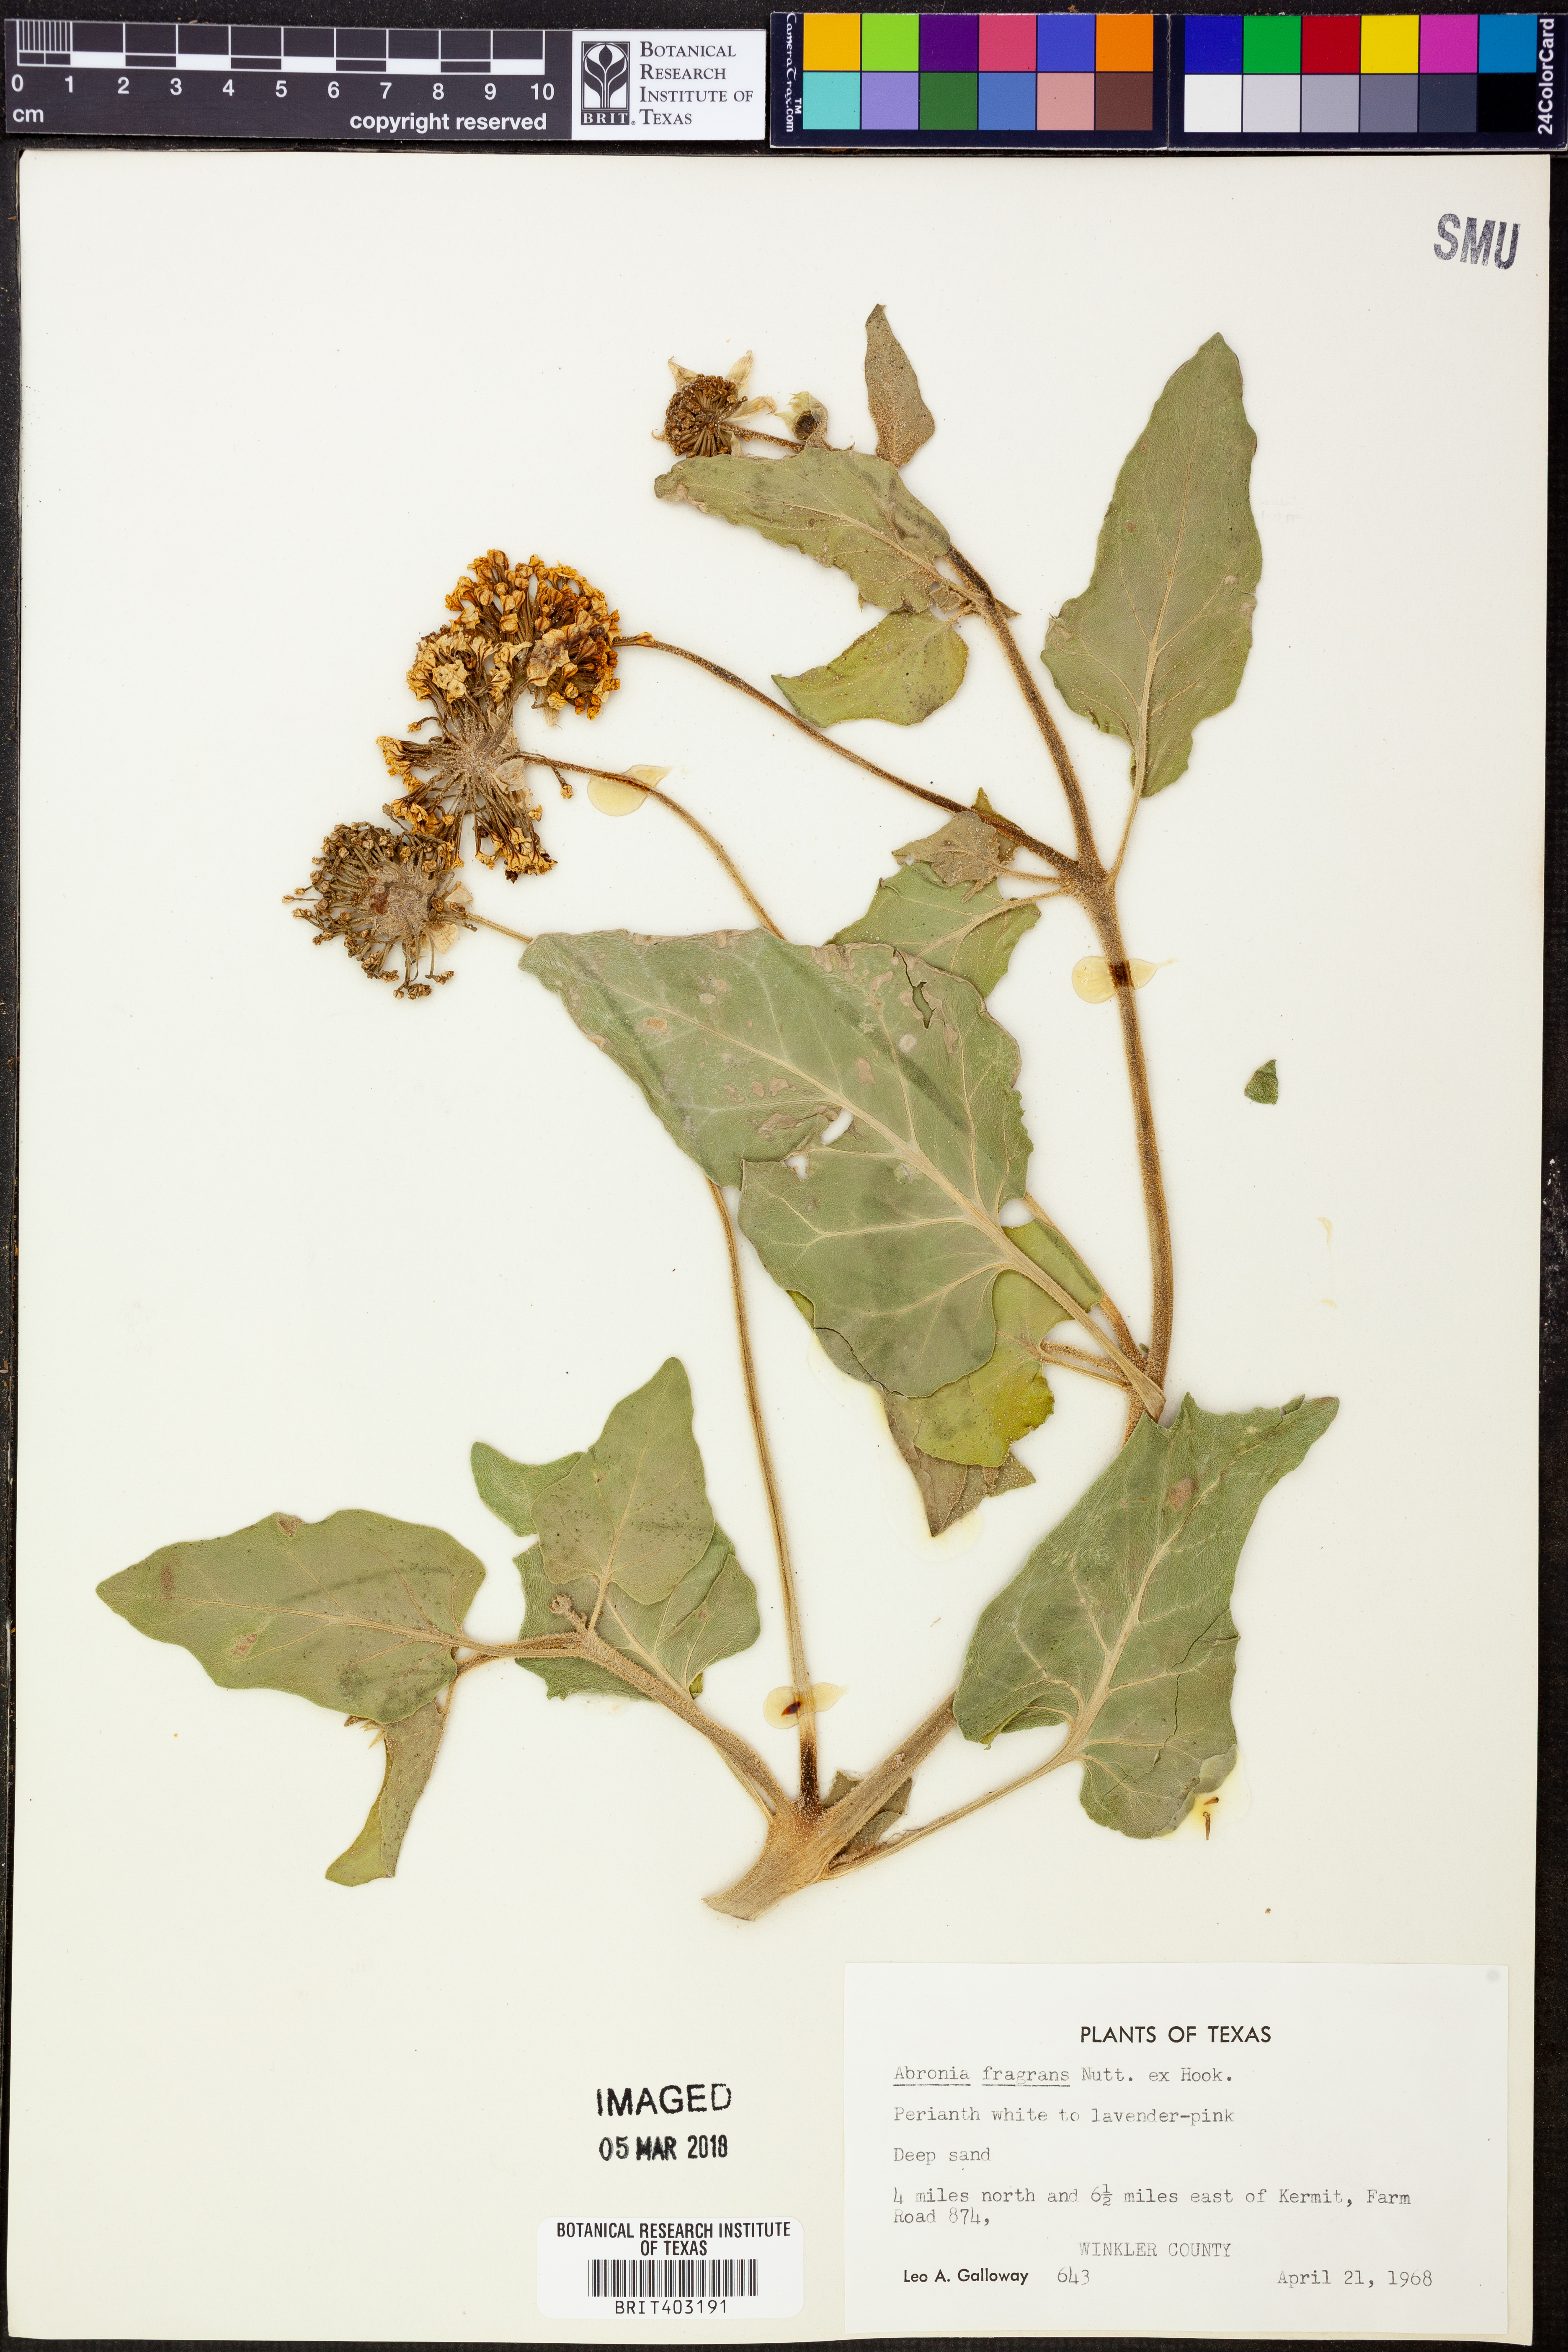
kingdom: Plantae
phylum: Tracheophyta
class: Magnoliopsida
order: Caryophyllales
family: Nyctaginaceae
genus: Abronia
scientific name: Abronia fragrans
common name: Fragrant sand-verbena
